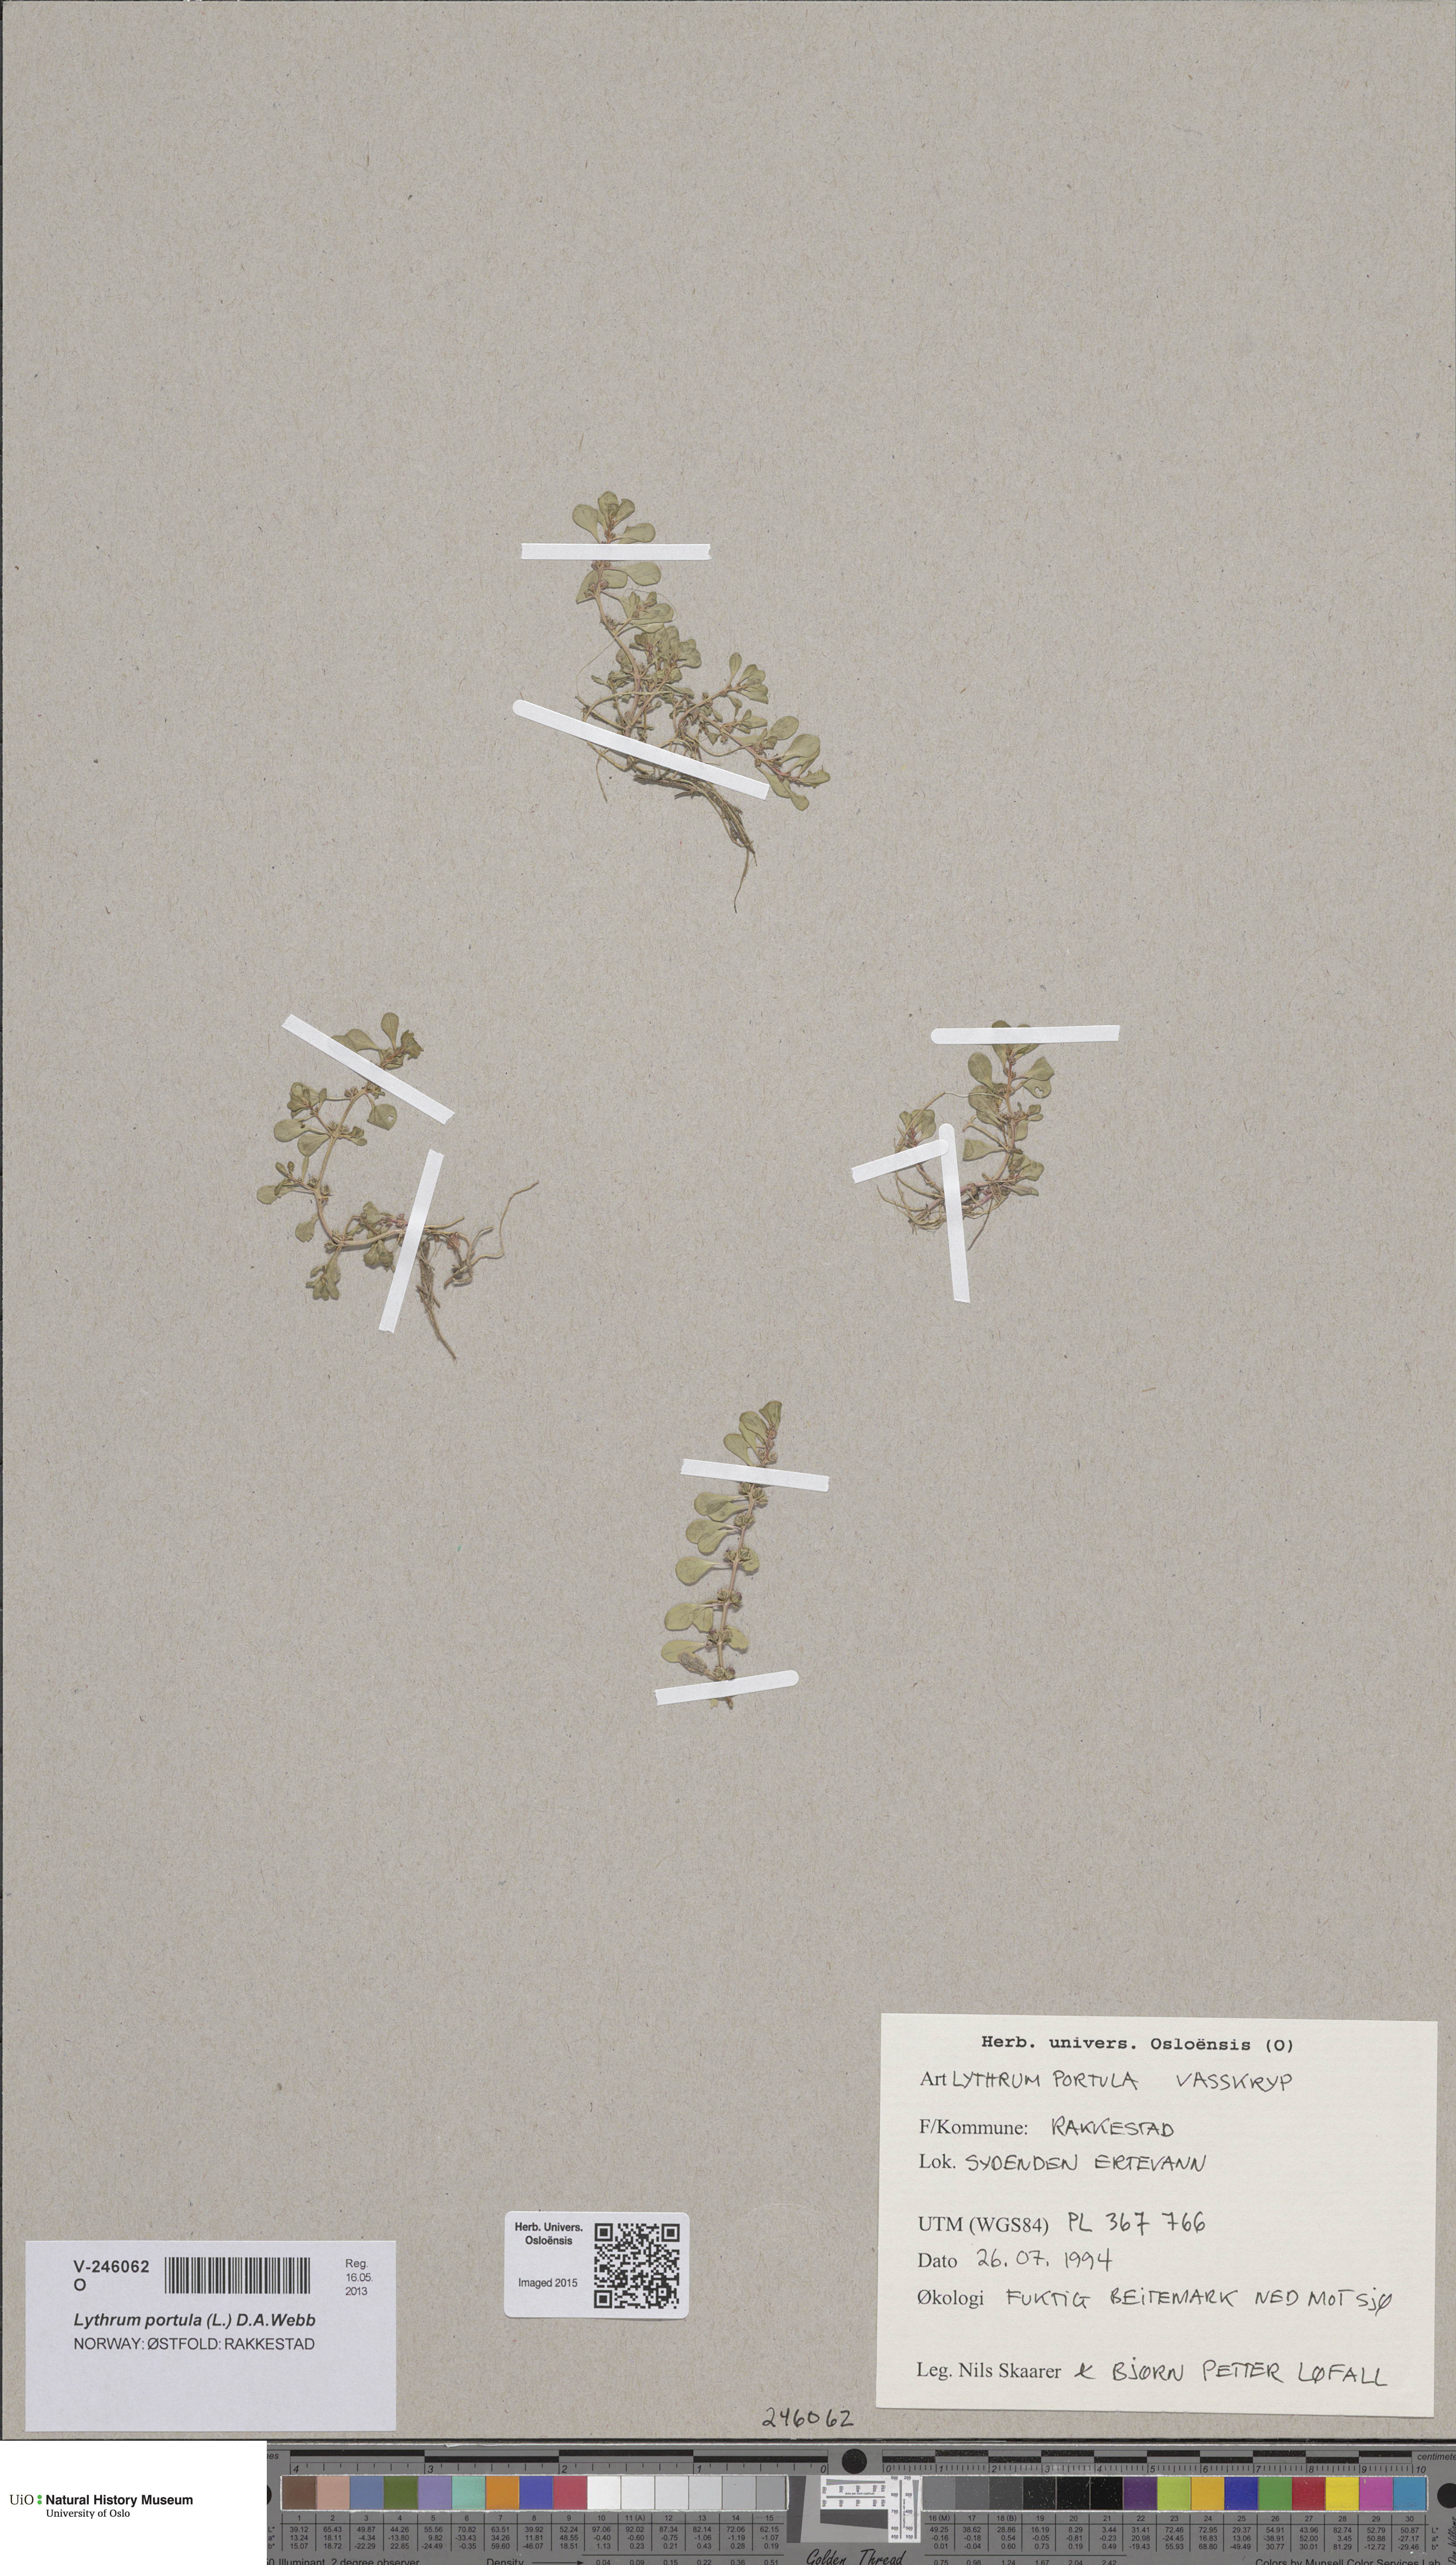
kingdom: Plantae
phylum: Tracheophyta
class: Magnoliopsida
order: Myrtales
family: Lythraceae
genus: Lythrum
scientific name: Lythrum portula
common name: Water purslane
